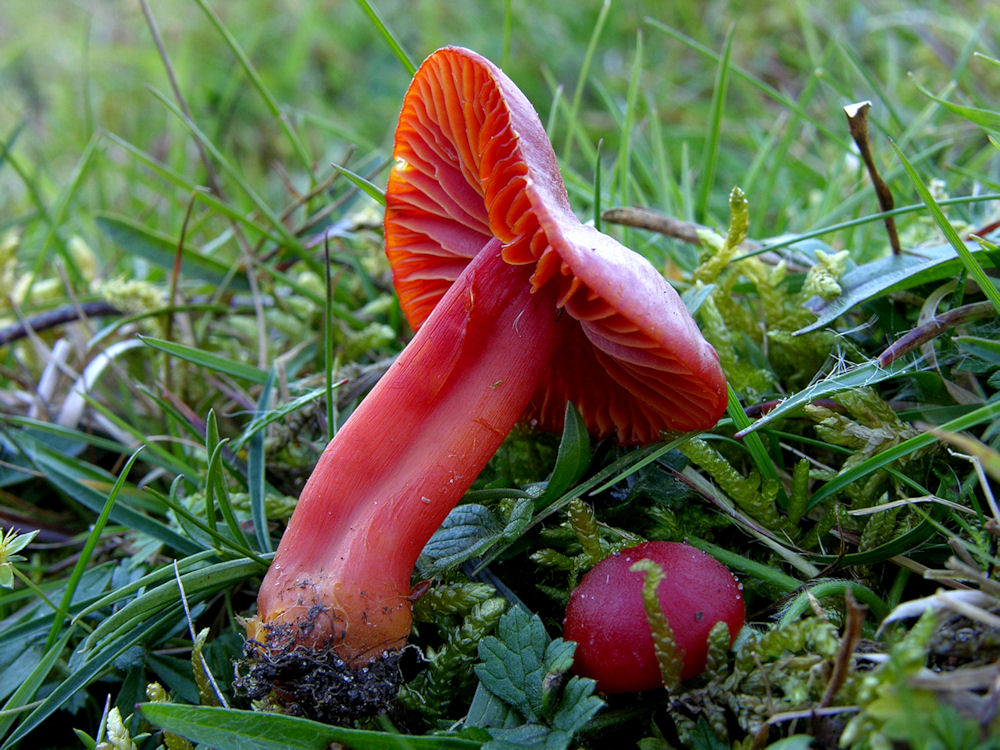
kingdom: Fungi
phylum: Basidiomycota
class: Agaricomycetes
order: Agaricales
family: Hygrophoraceae
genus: Hygrocybe
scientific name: Hygrocybe splendidissima
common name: knaldrød vokshat
